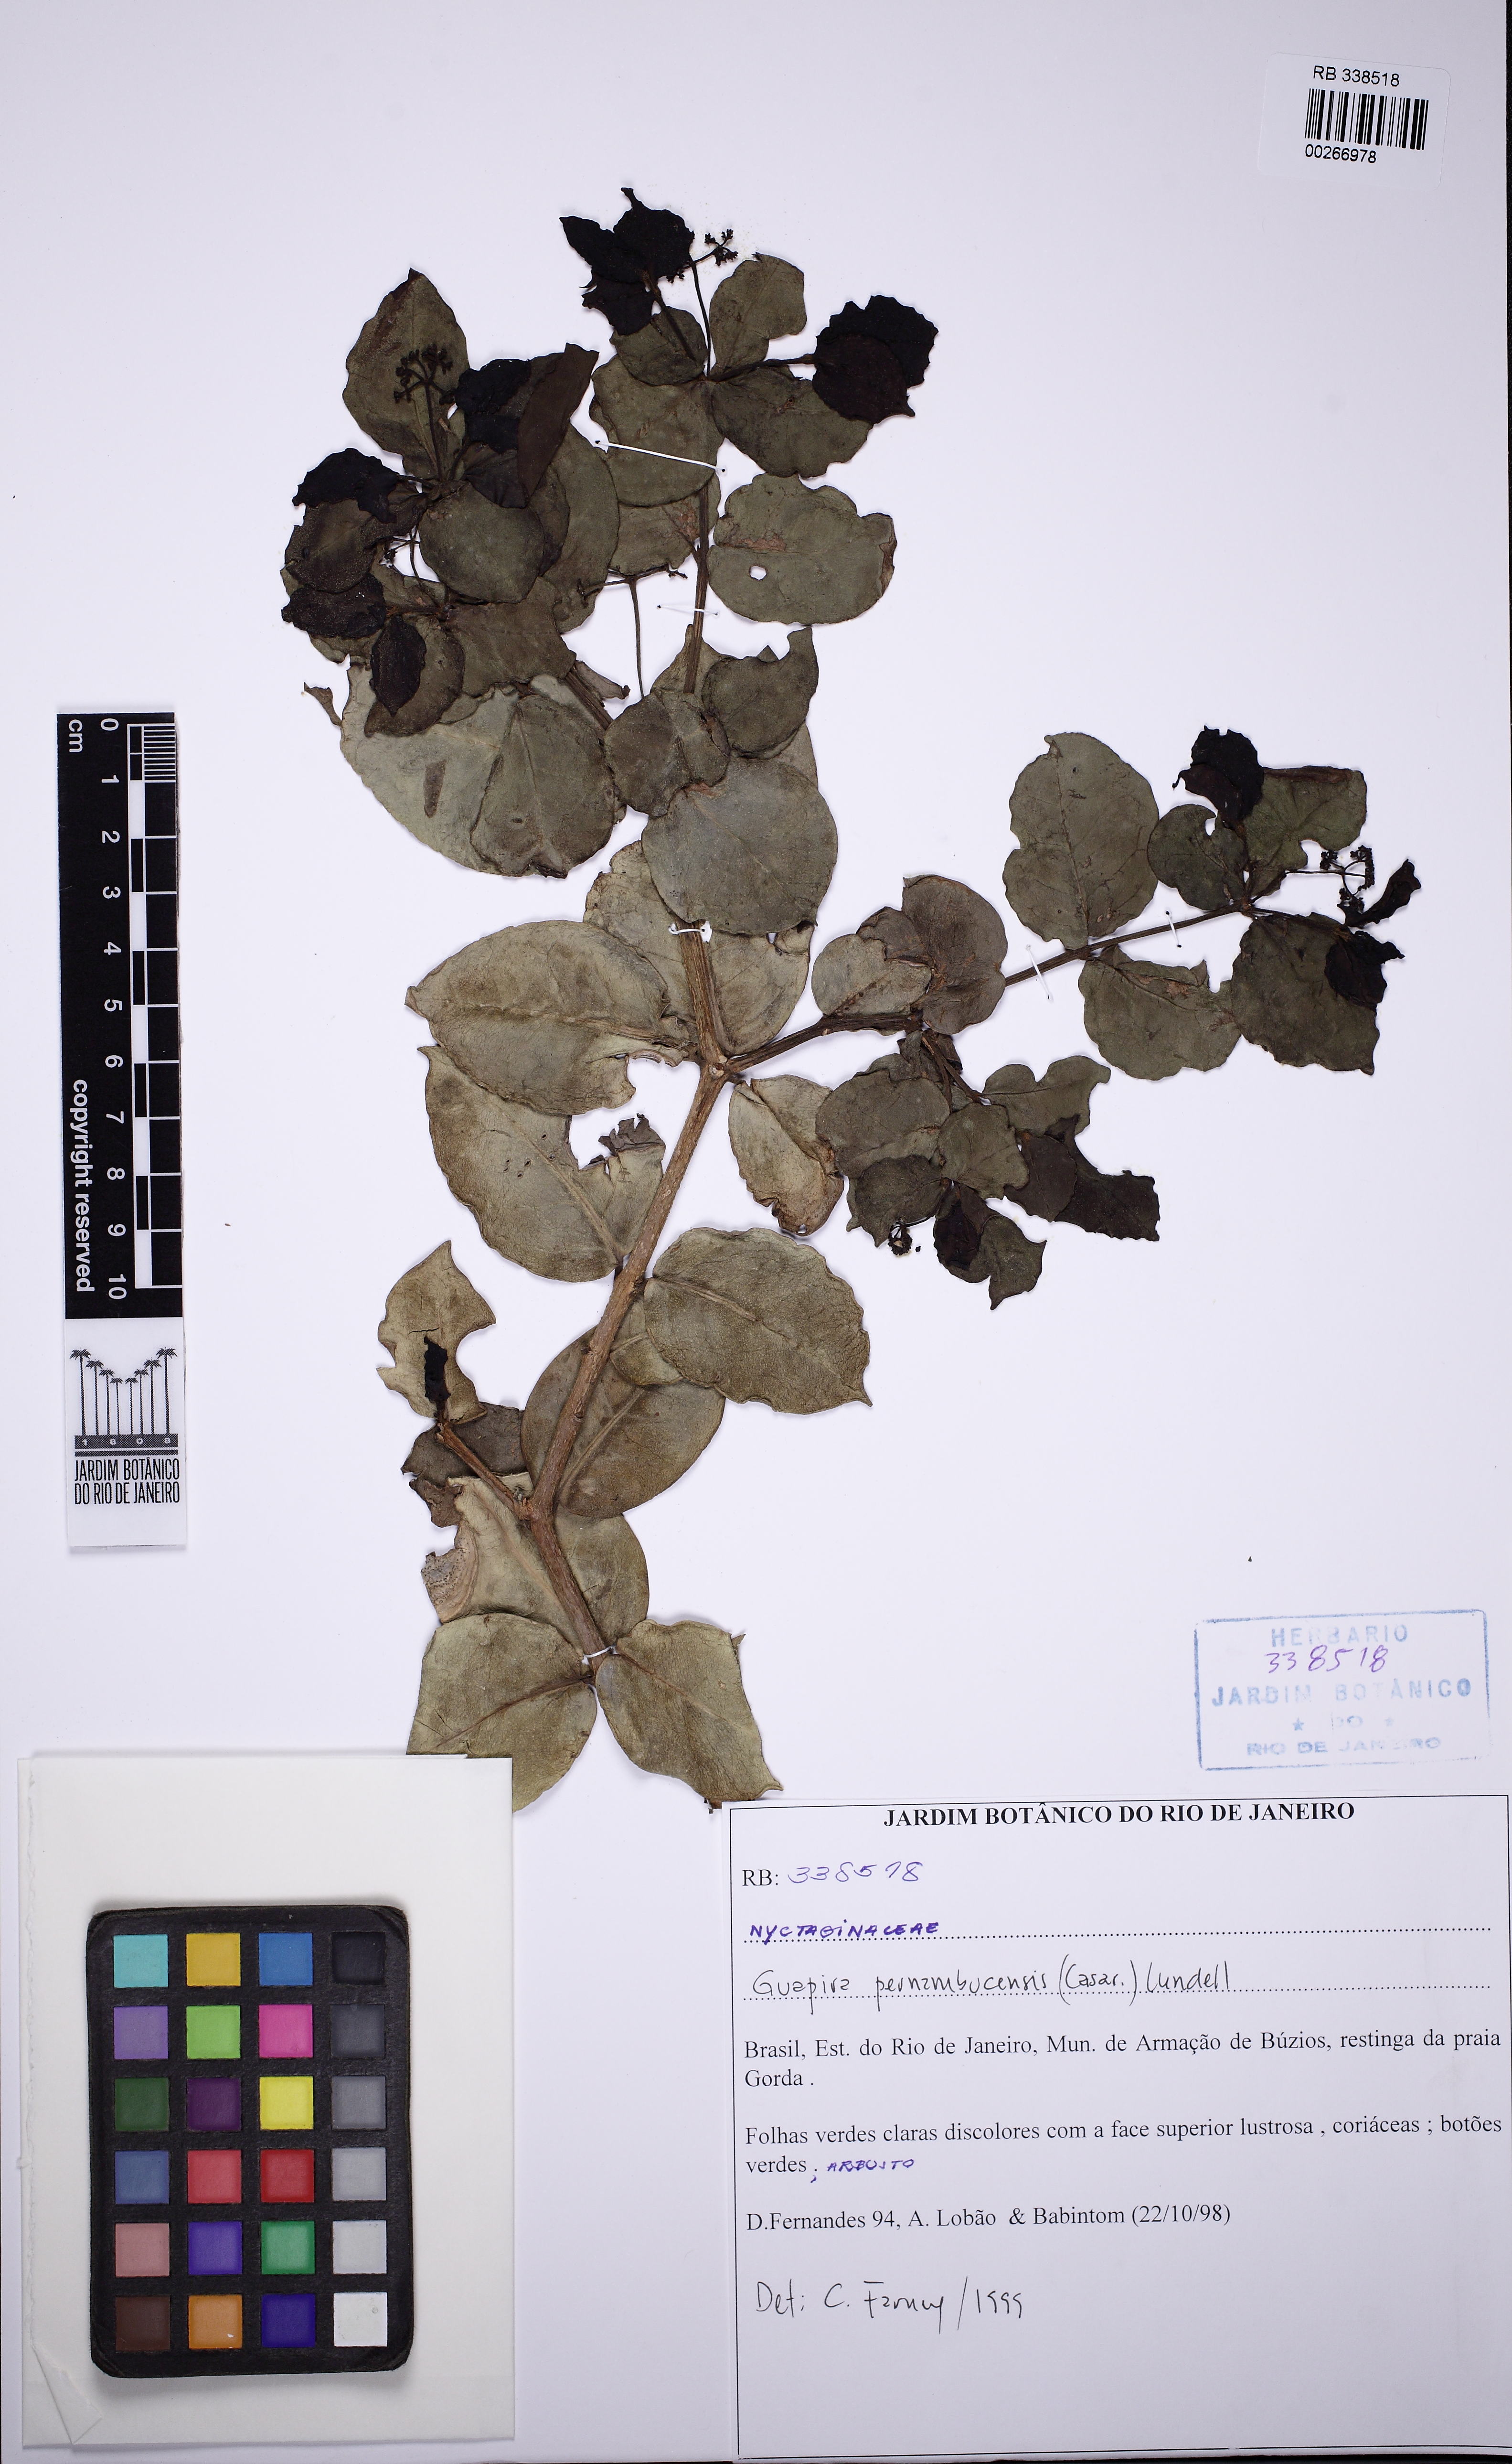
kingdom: Plantae
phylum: Tracheophyta
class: Magnoliopsida
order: Caryophyllales
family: Nyctaginaceae
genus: Guapira
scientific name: Guapira pernambucensis
